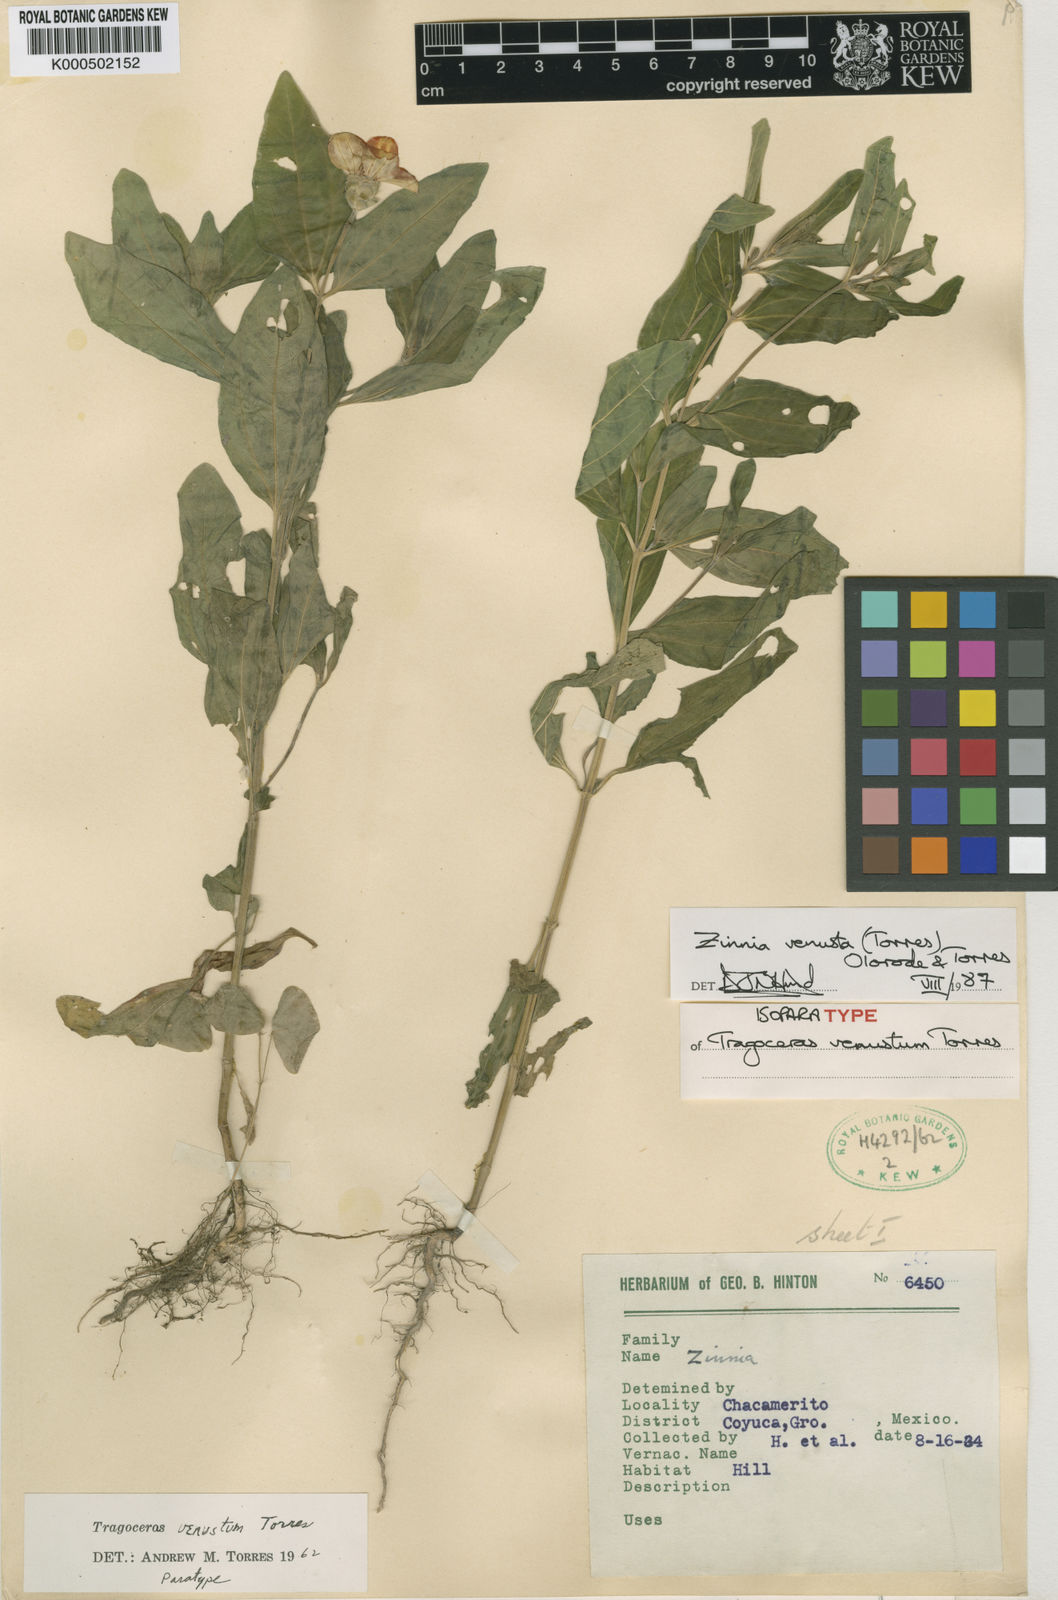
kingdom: Plantae
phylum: Tracheophyta
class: Magnoliopsida
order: Asterales
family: Asteraceae
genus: Zinnia
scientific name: Zinnia venusta
